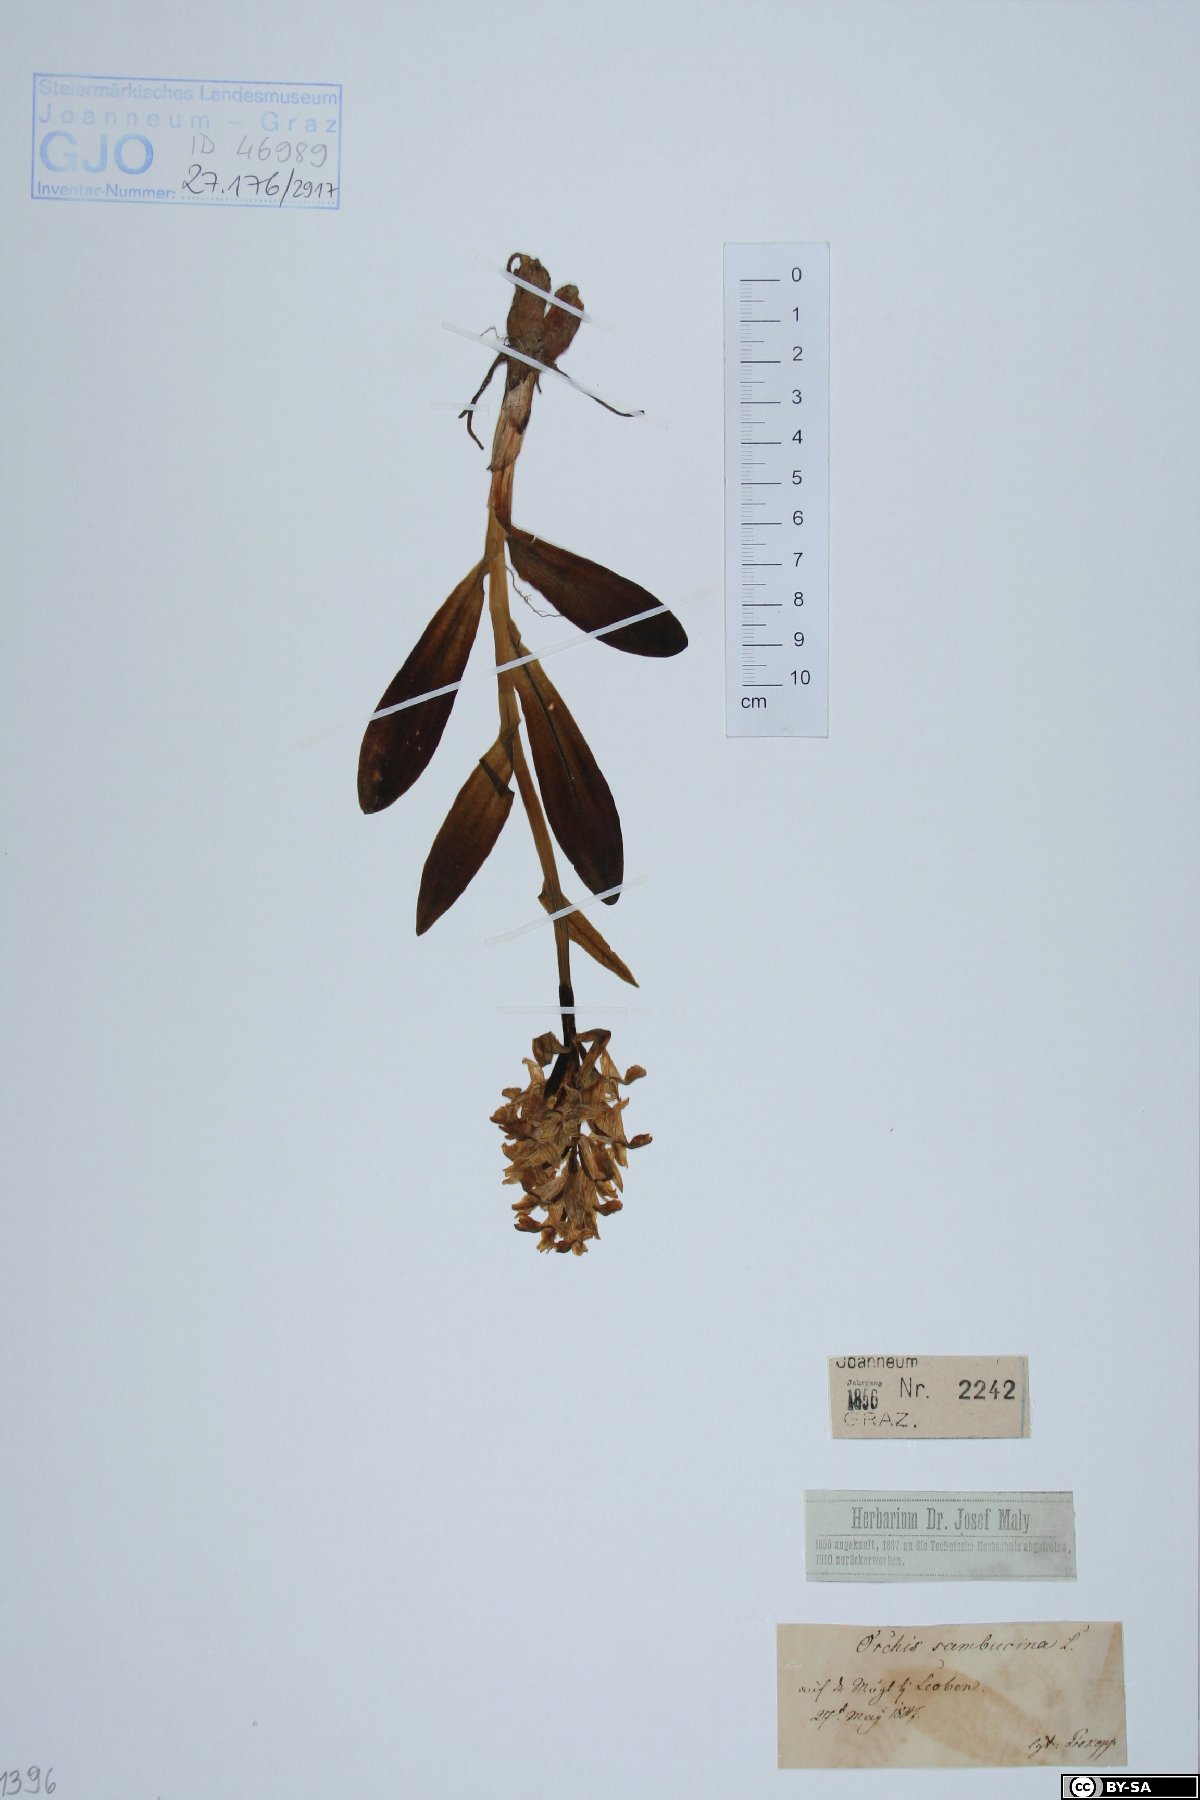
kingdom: Plantae
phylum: Tracheophyta
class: Liliopsida
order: Asparagales
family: Orchidaceae
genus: Dactylorhiza
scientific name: Dactylorhiza sambucina
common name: Elder-flowered orchid
